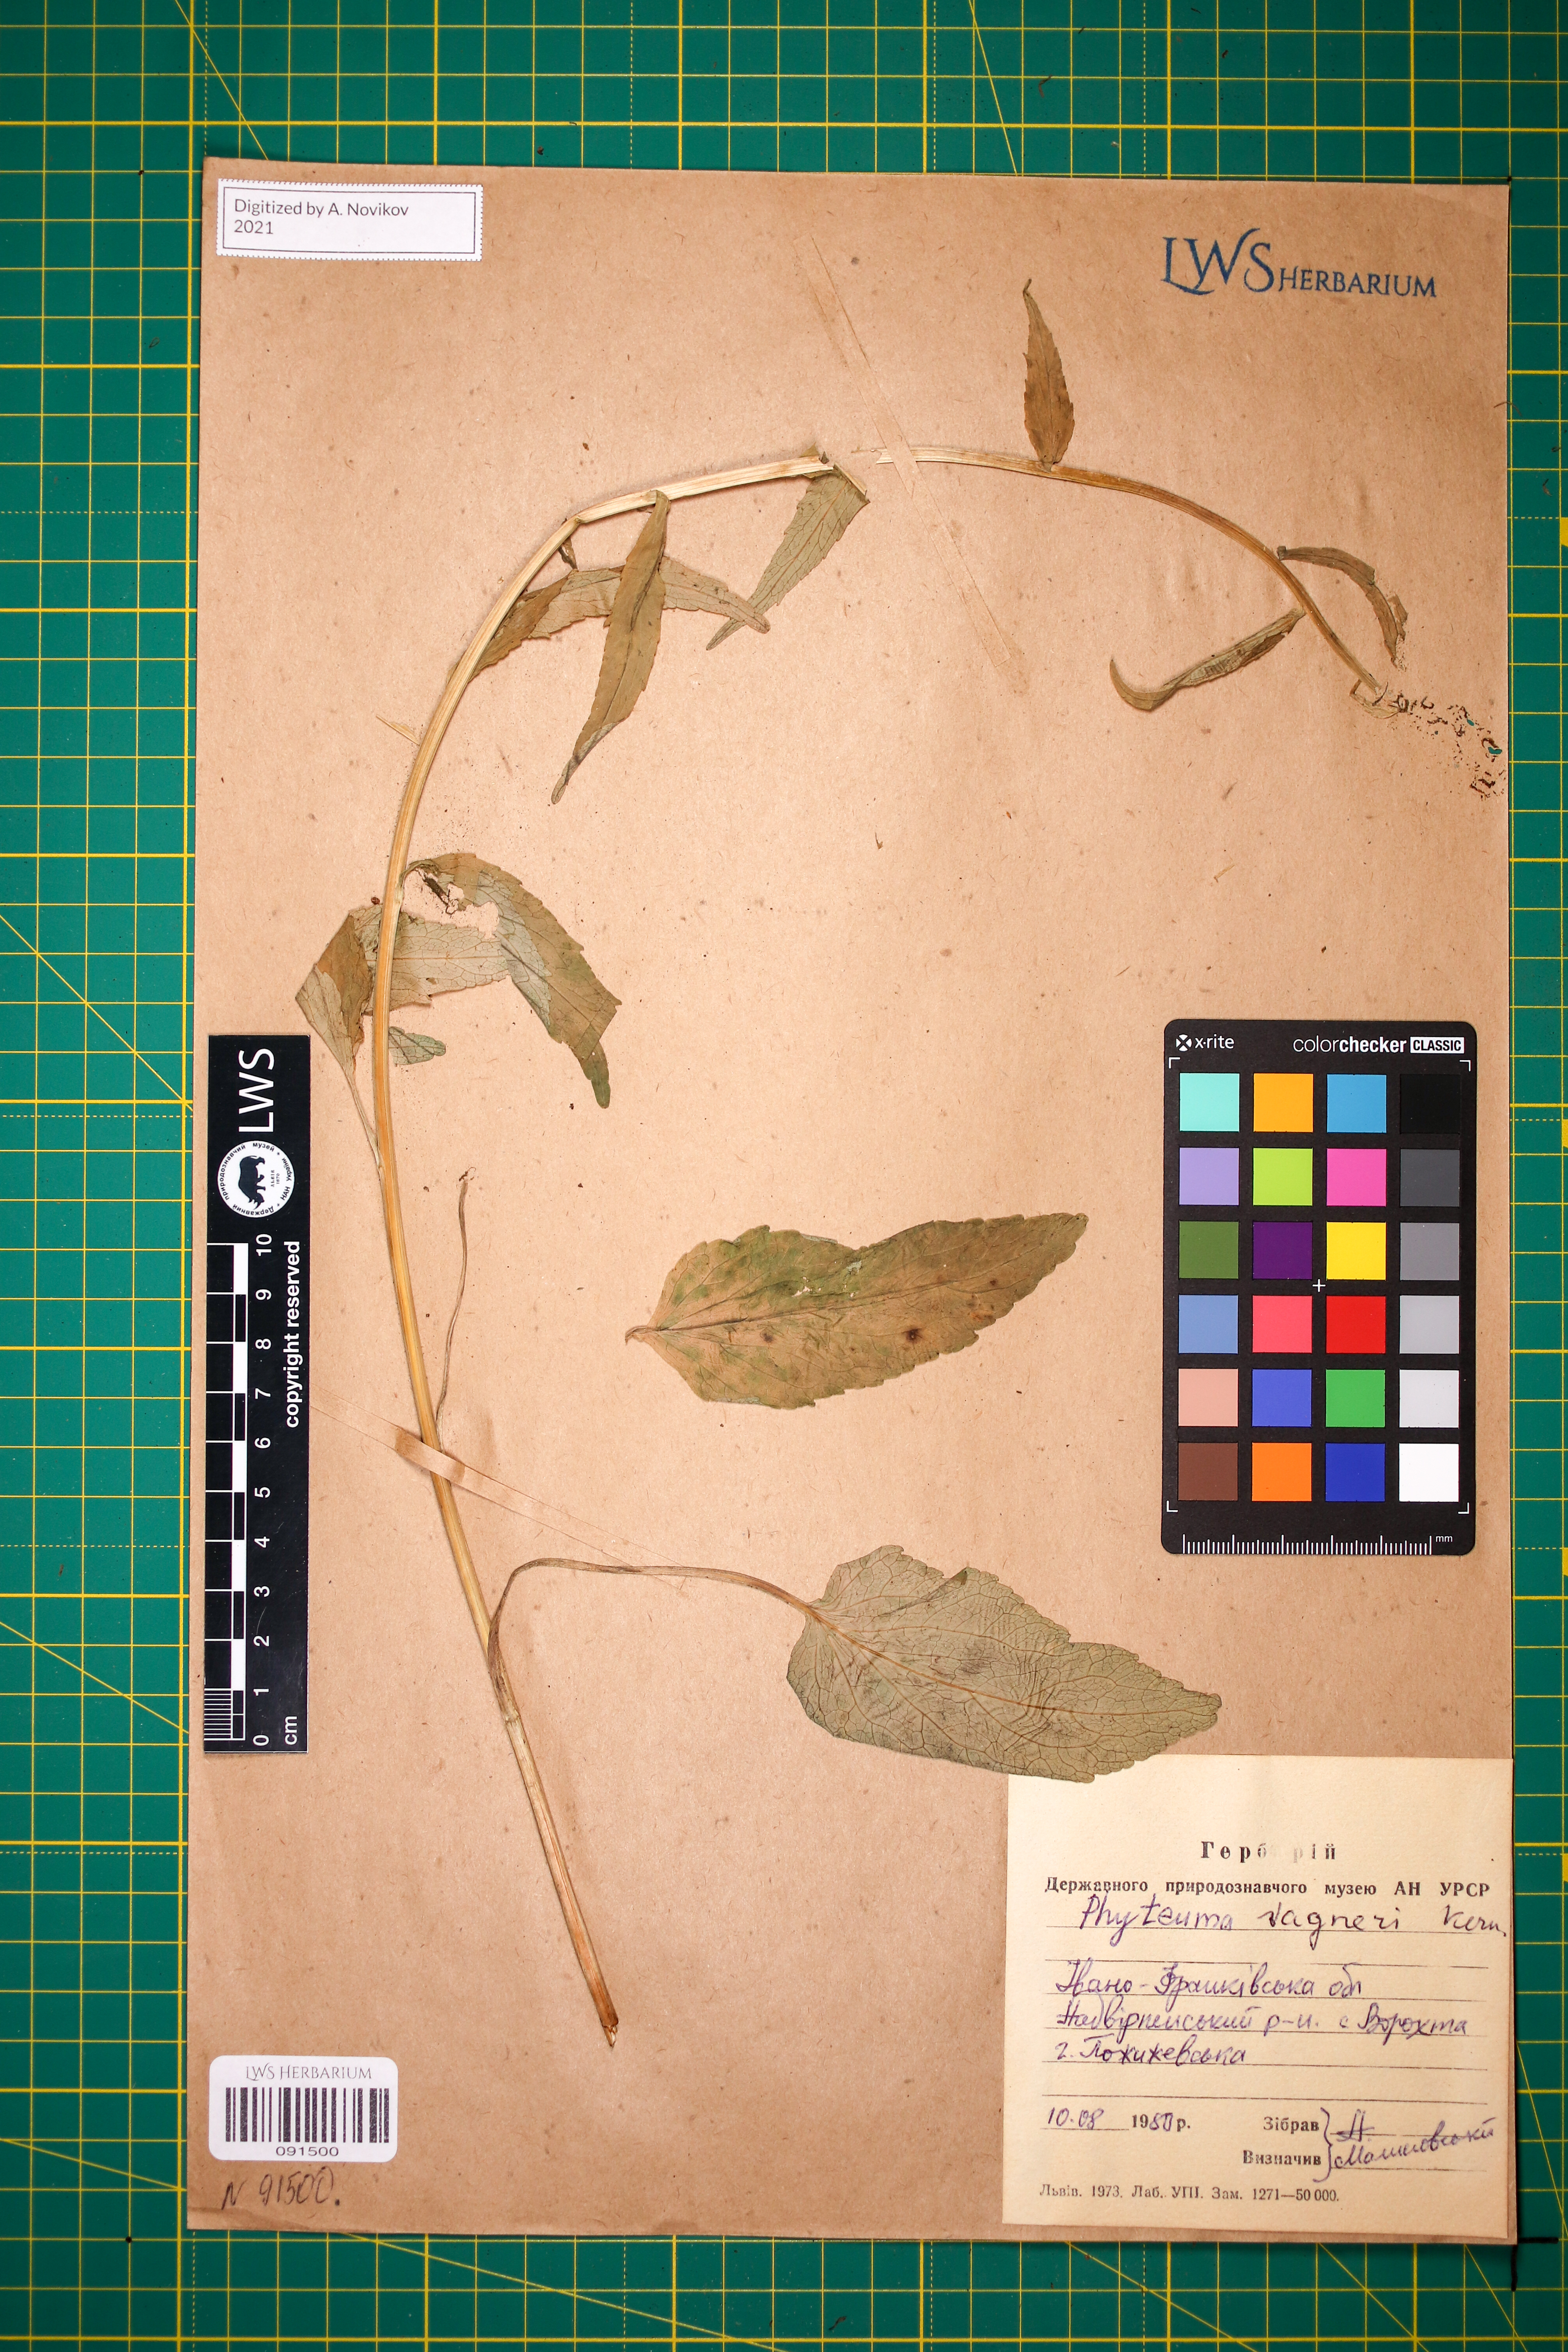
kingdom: Plantae
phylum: Tracheophyta
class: Magnoliopsida
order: Asterales
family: Campanulaceae
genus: Phyteuma
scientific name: Phyteuma vagneri
